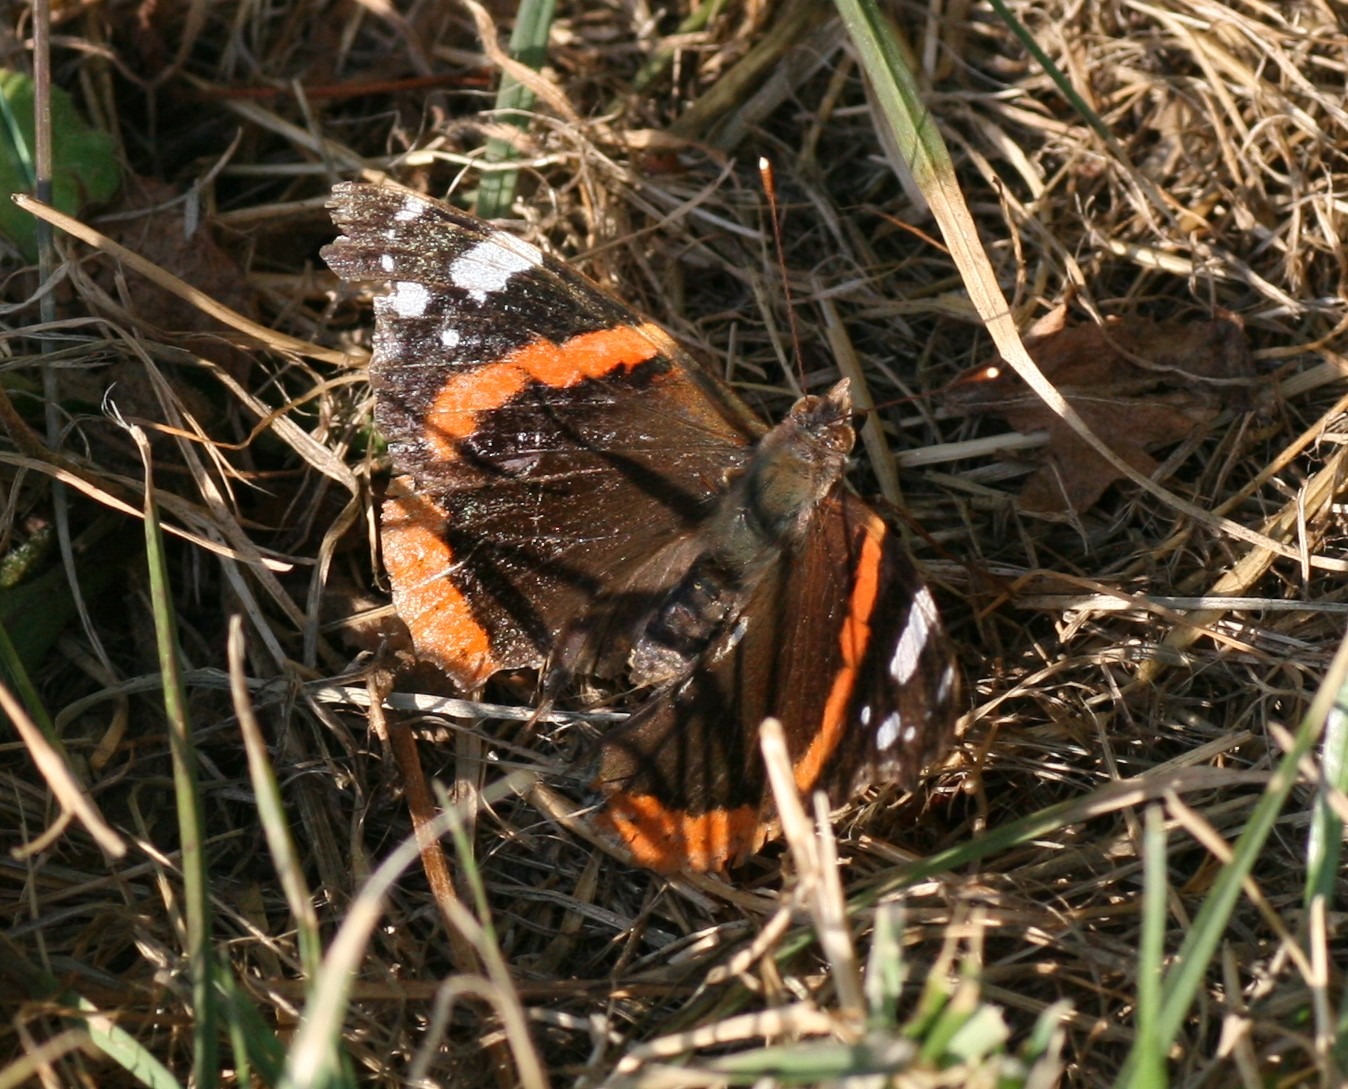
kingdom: Animalia
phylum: Arthropoda
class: Insecta
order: Lepidoptera
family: Nymphalidae
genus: Vanessa
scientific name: Vanessa atalanta
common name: Admiral
